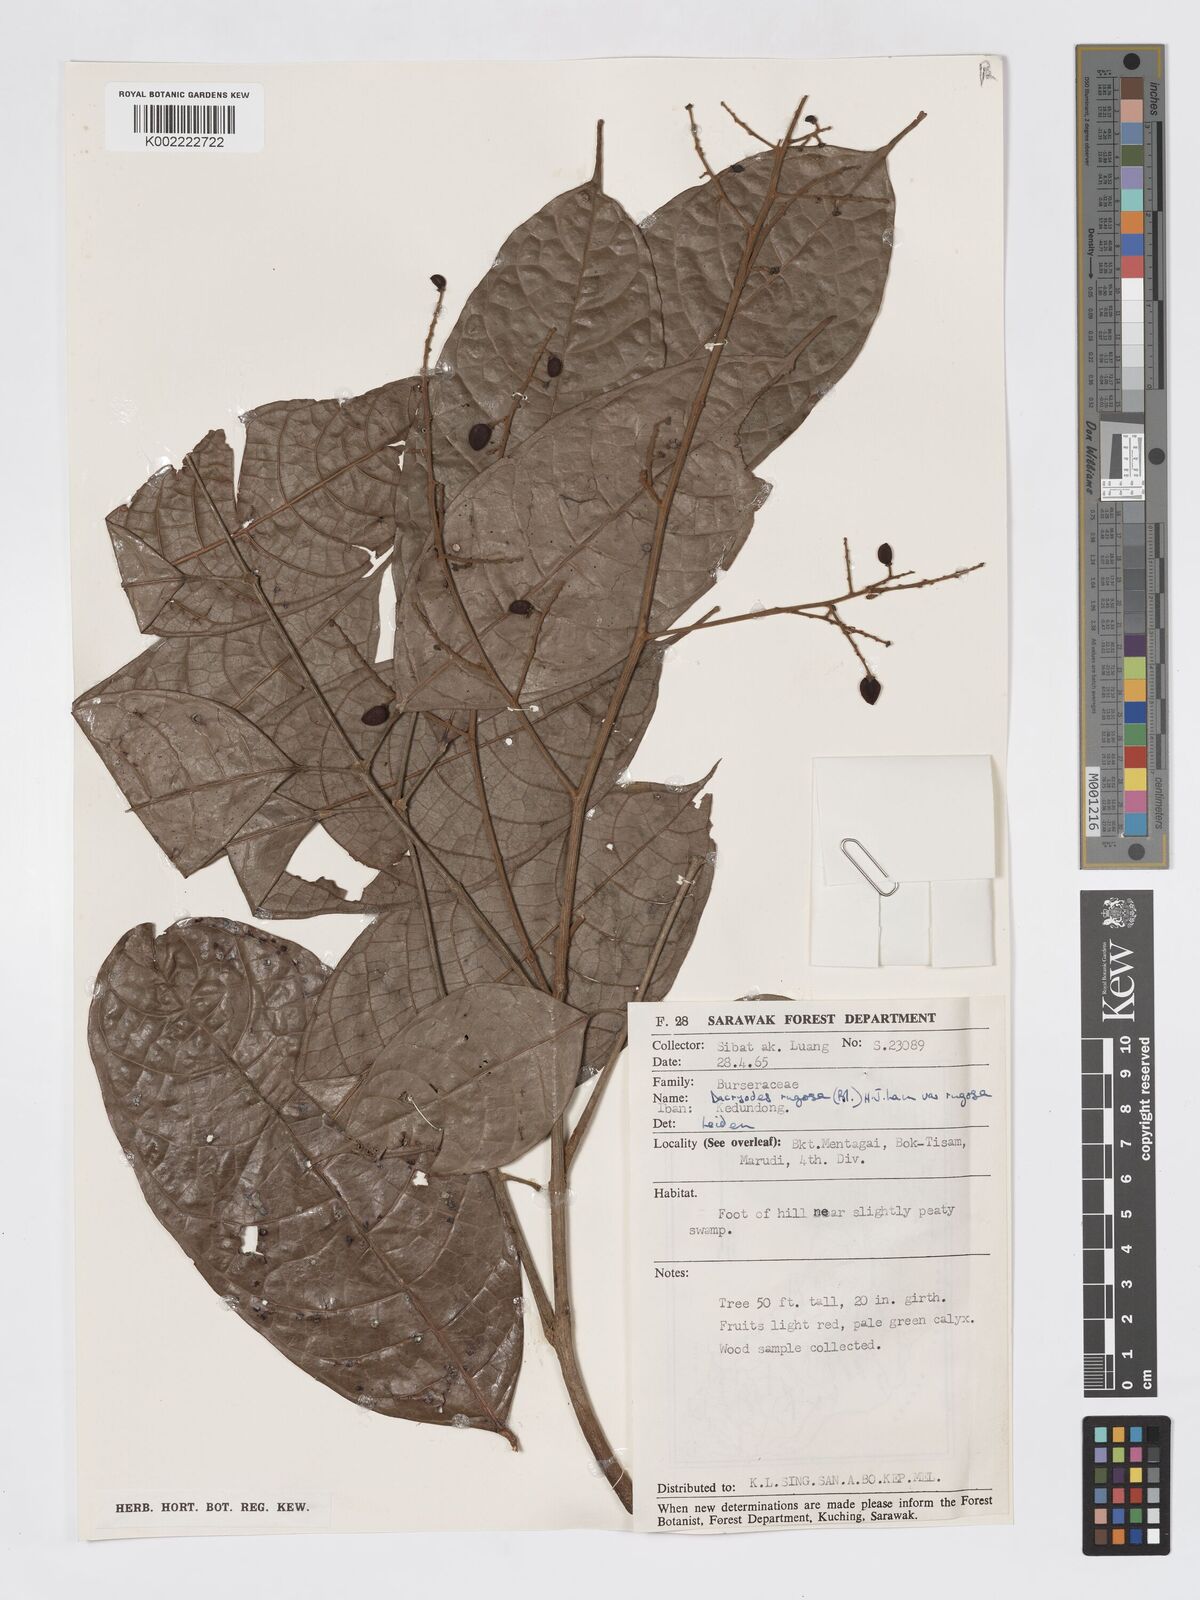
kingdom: Plantae
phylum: Tracheophyta
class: Magnoliopsida
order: Sapindales
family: Burseraceae
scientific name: Burseraceae
